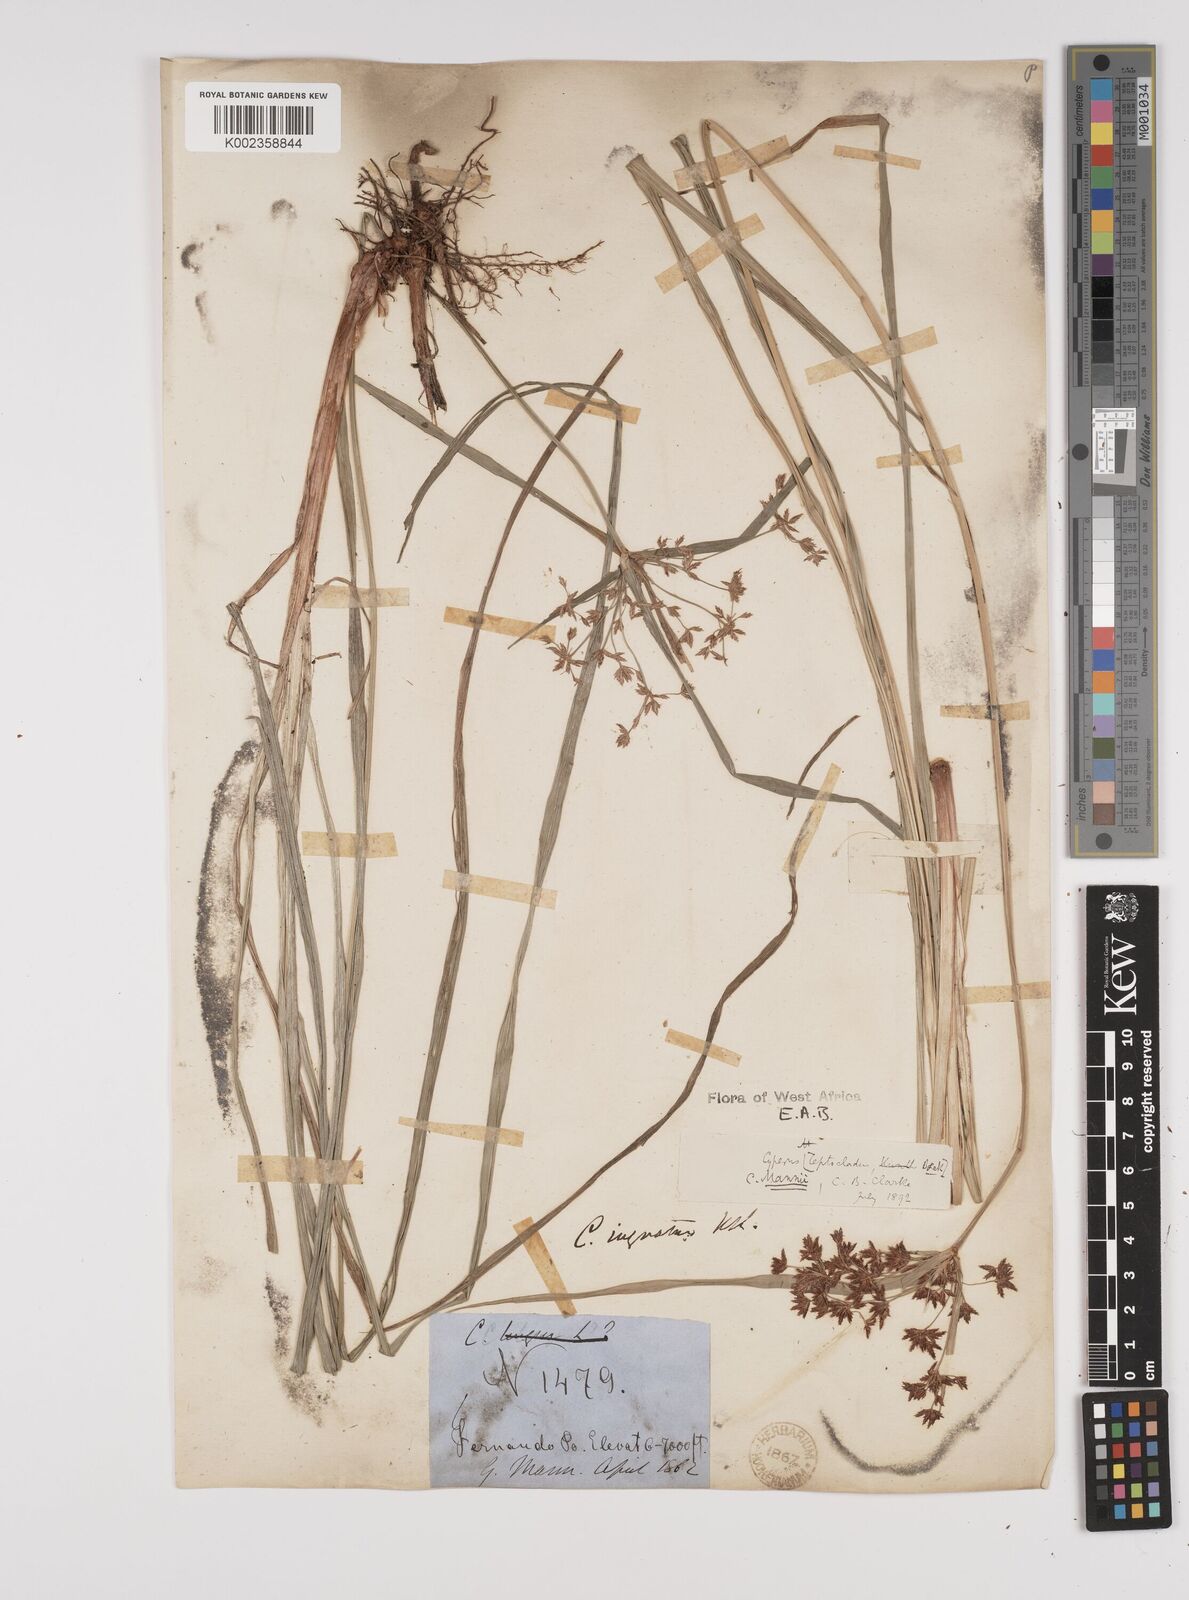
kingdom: Plantae
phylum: Tracheophyta
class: Liliopsida
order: Poales
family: Cyperaceae
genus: Cyperus
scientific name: Cyperus baronii
